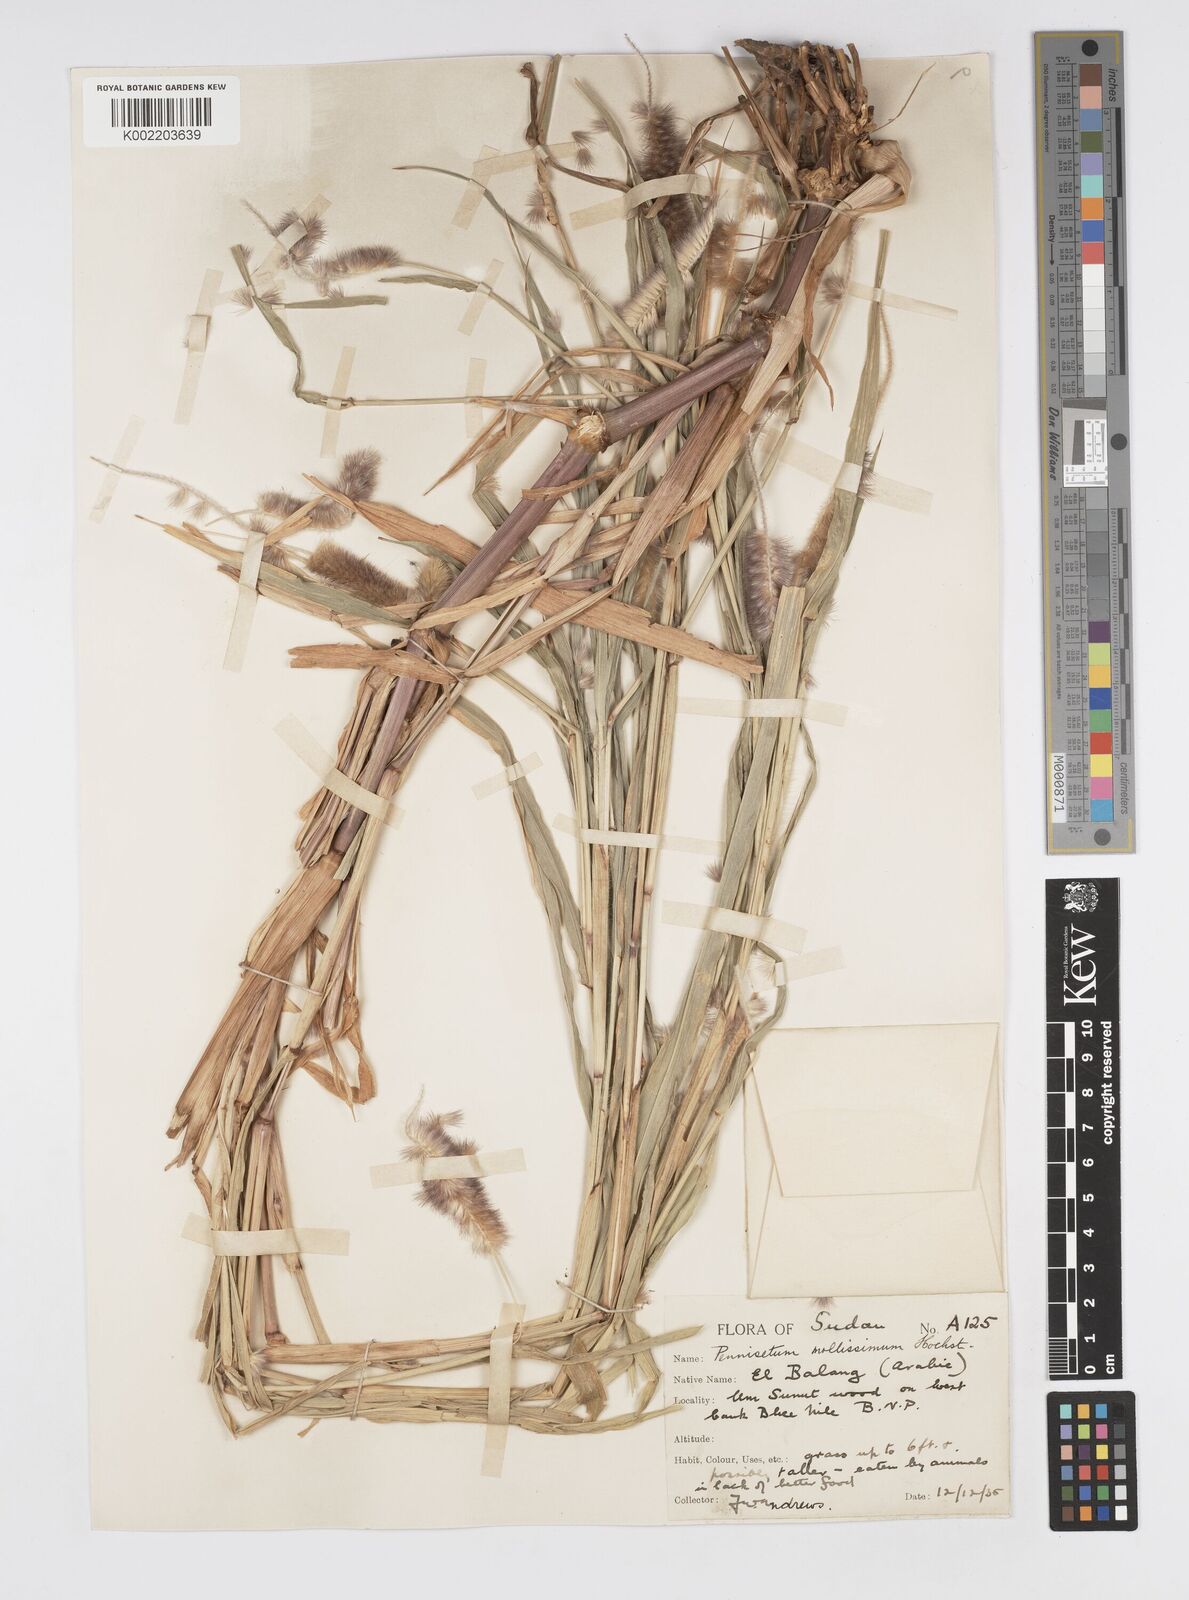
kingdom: Plantae
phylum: Tracheophyta
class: Liliopsida
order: Poales
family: Poaceae
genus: Cenchrus
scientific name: Cenchrus violaceus
